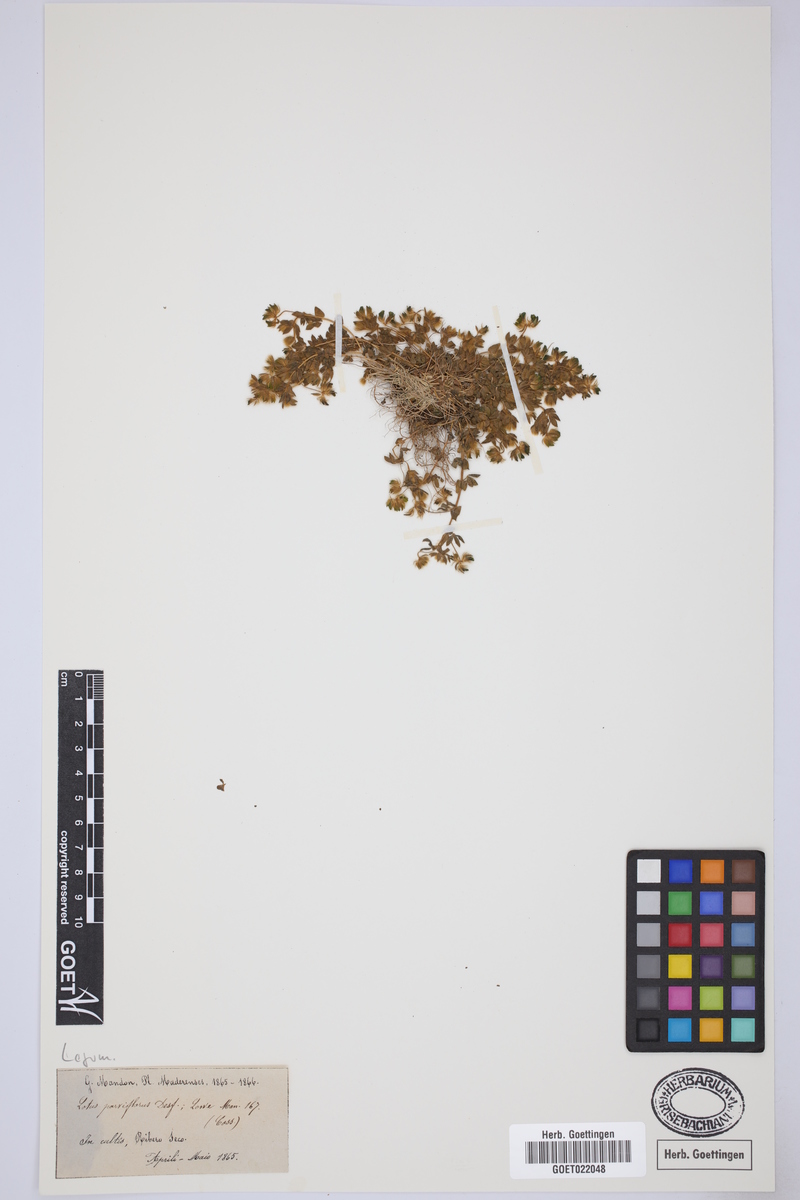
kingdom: Plantae
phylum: Tracheophyta
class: Magnoliopsida
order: Fabales
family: Fabaceae
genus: Lotus
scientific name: Lotus parviflorus
